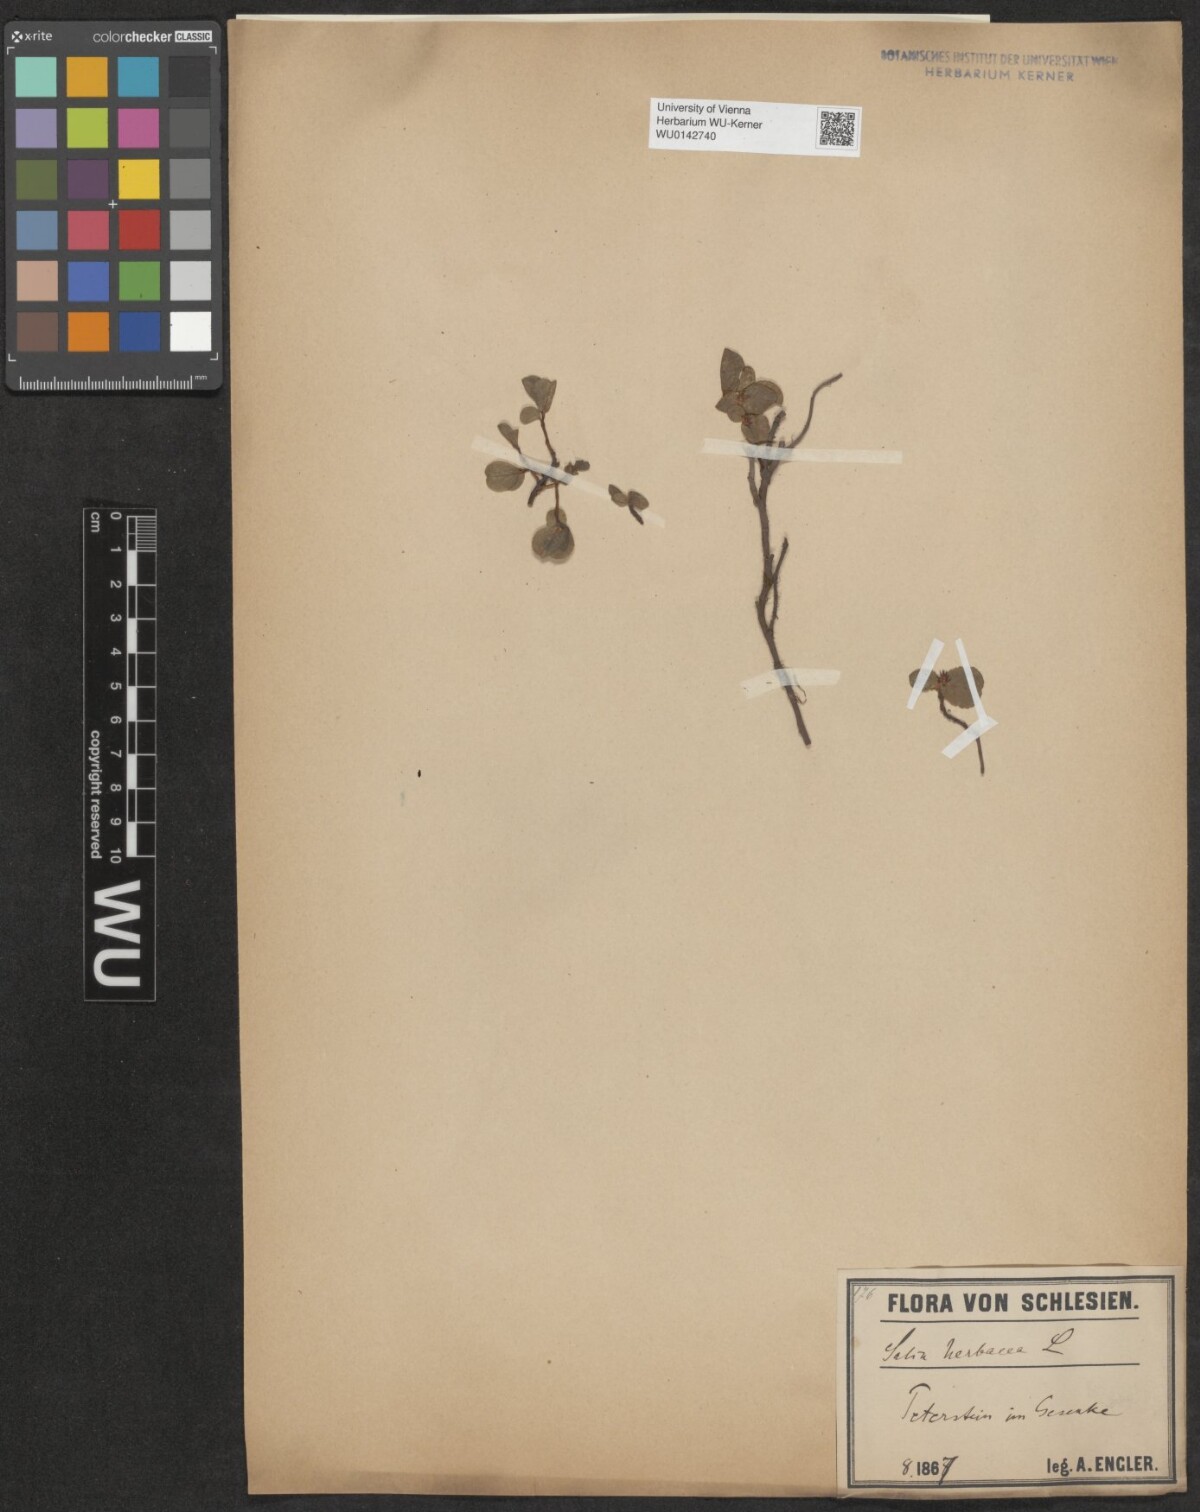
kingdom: Plantae
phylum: Tracheophyta
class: Magnoliopsida
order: Malpighiales
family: Salicaceae
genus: Salix
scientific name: Salix herbacea
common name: Dwarf willow
